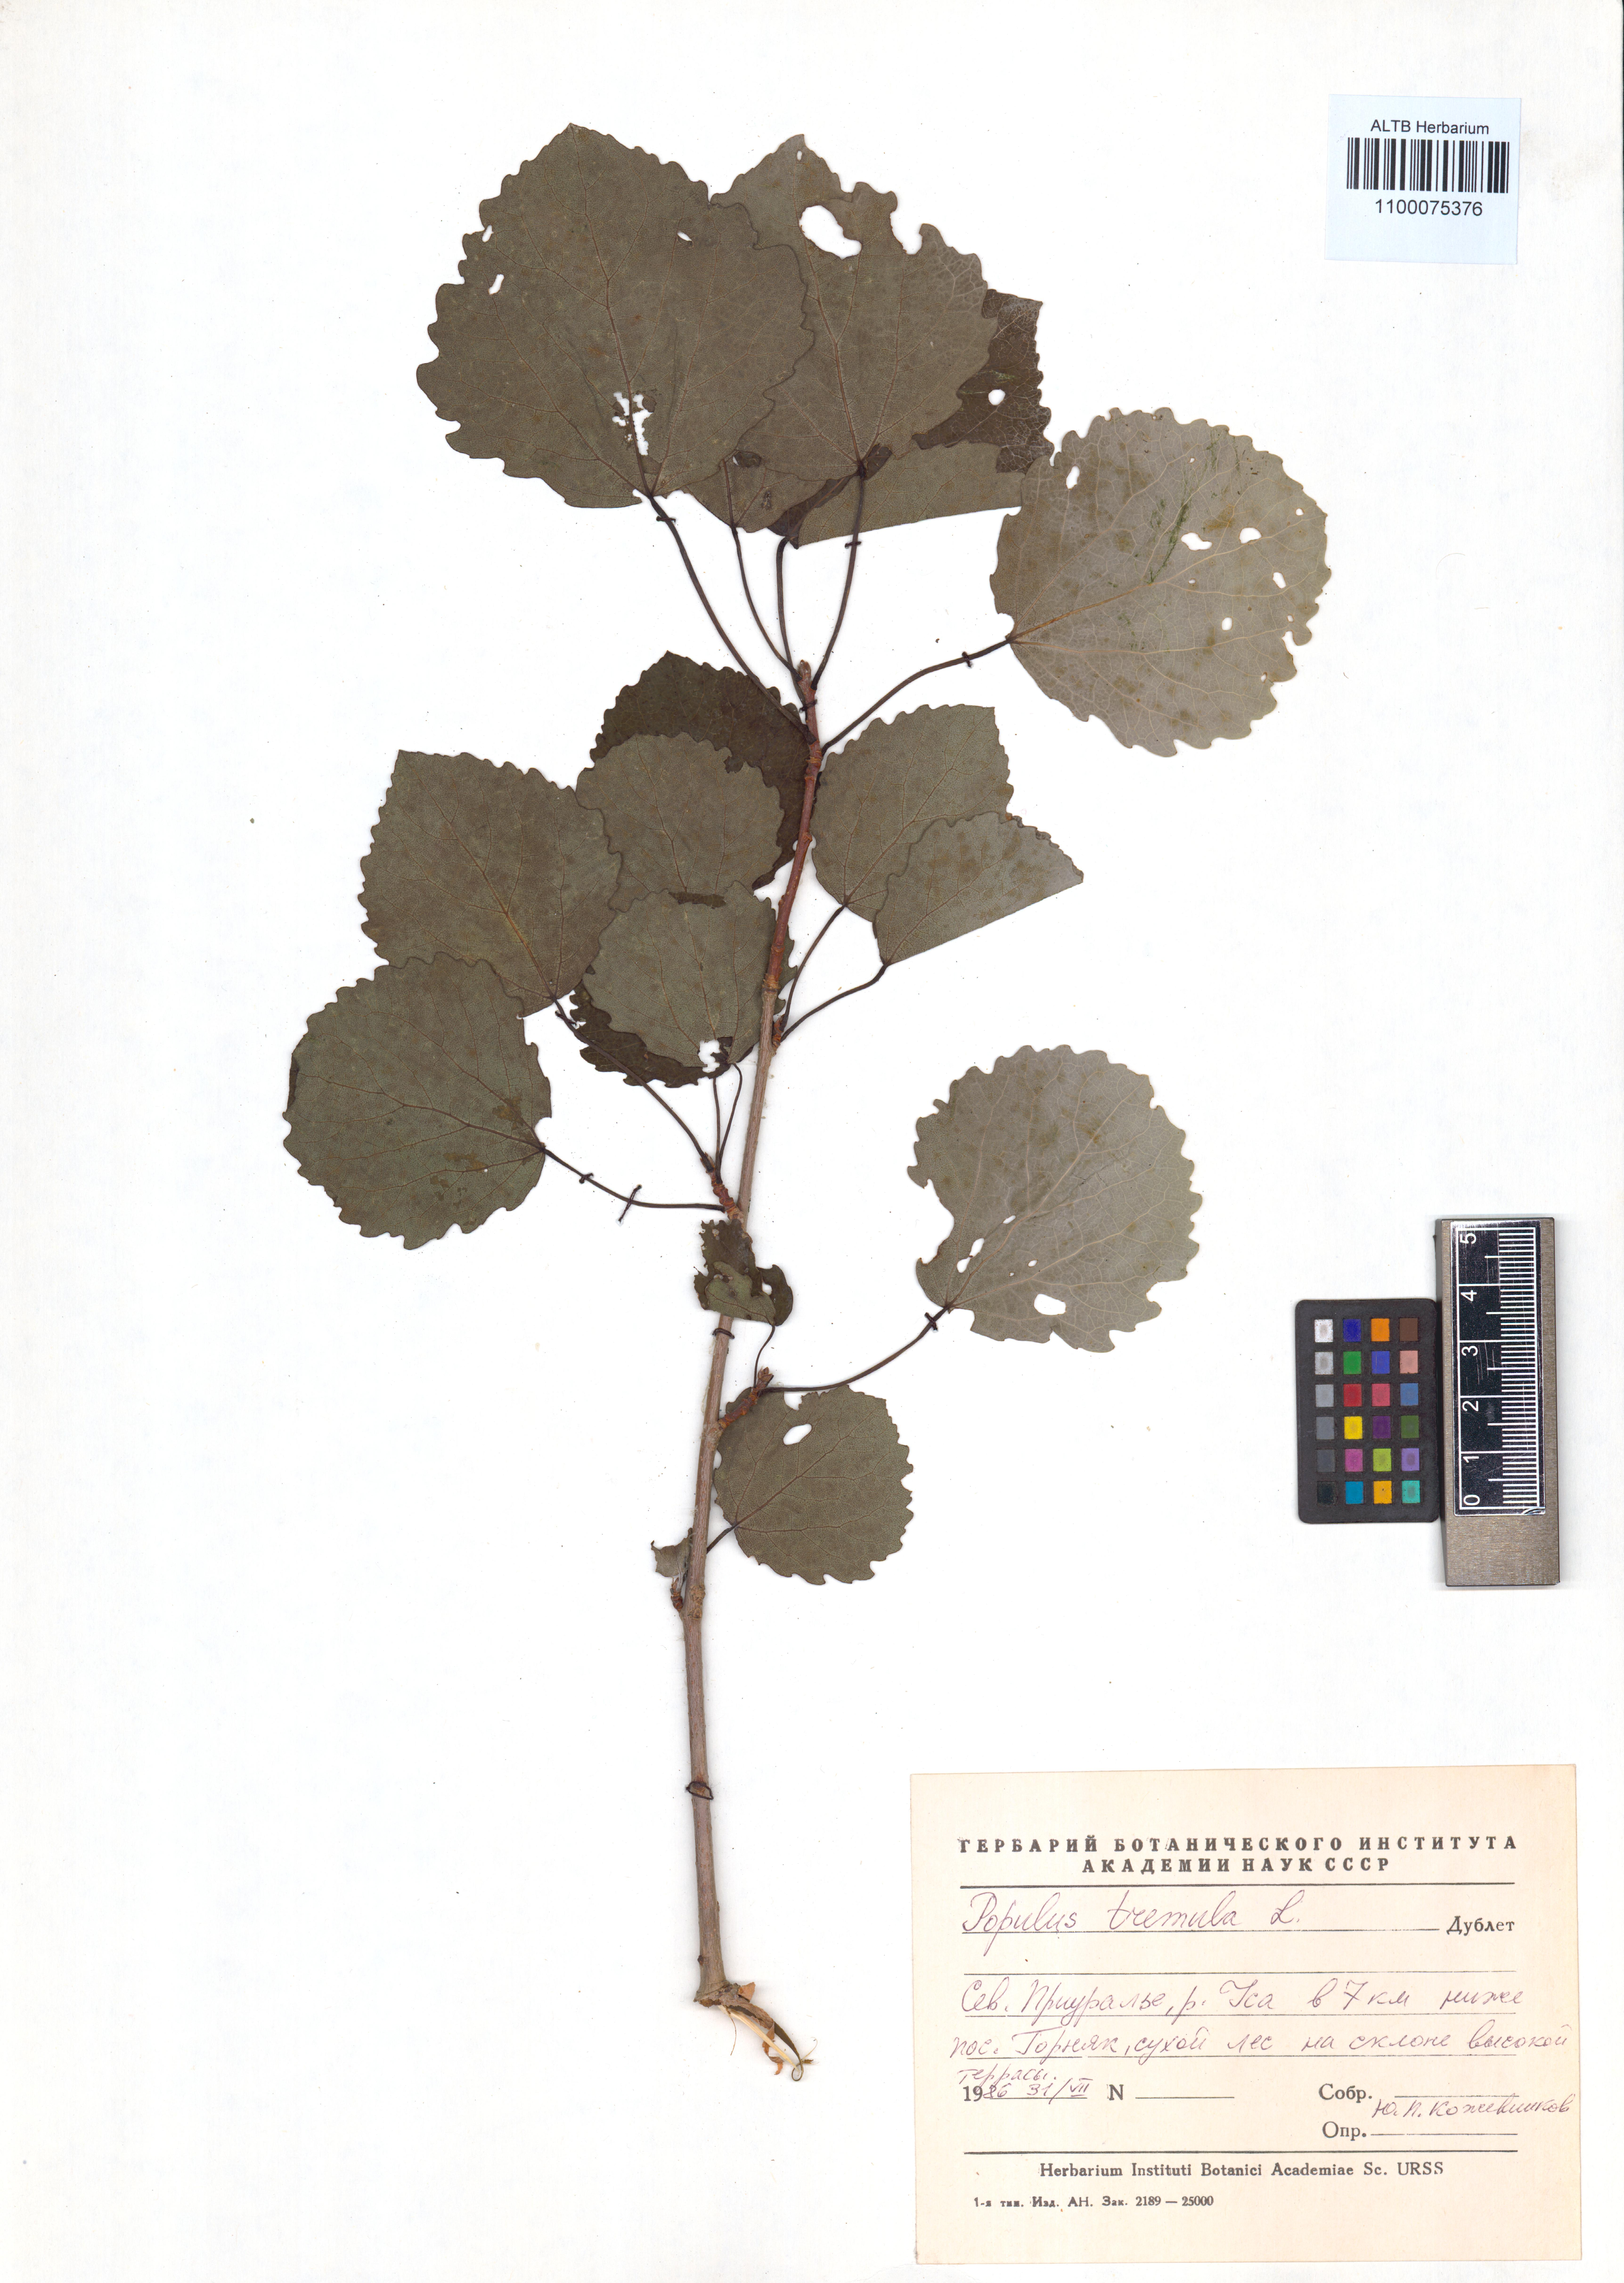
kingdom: Plantae
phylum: Tracheophyta
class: Magnoliopsida
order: Malpighiales
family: Salicaceae
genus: Populus
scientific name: Populus tremula
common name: European aspen
